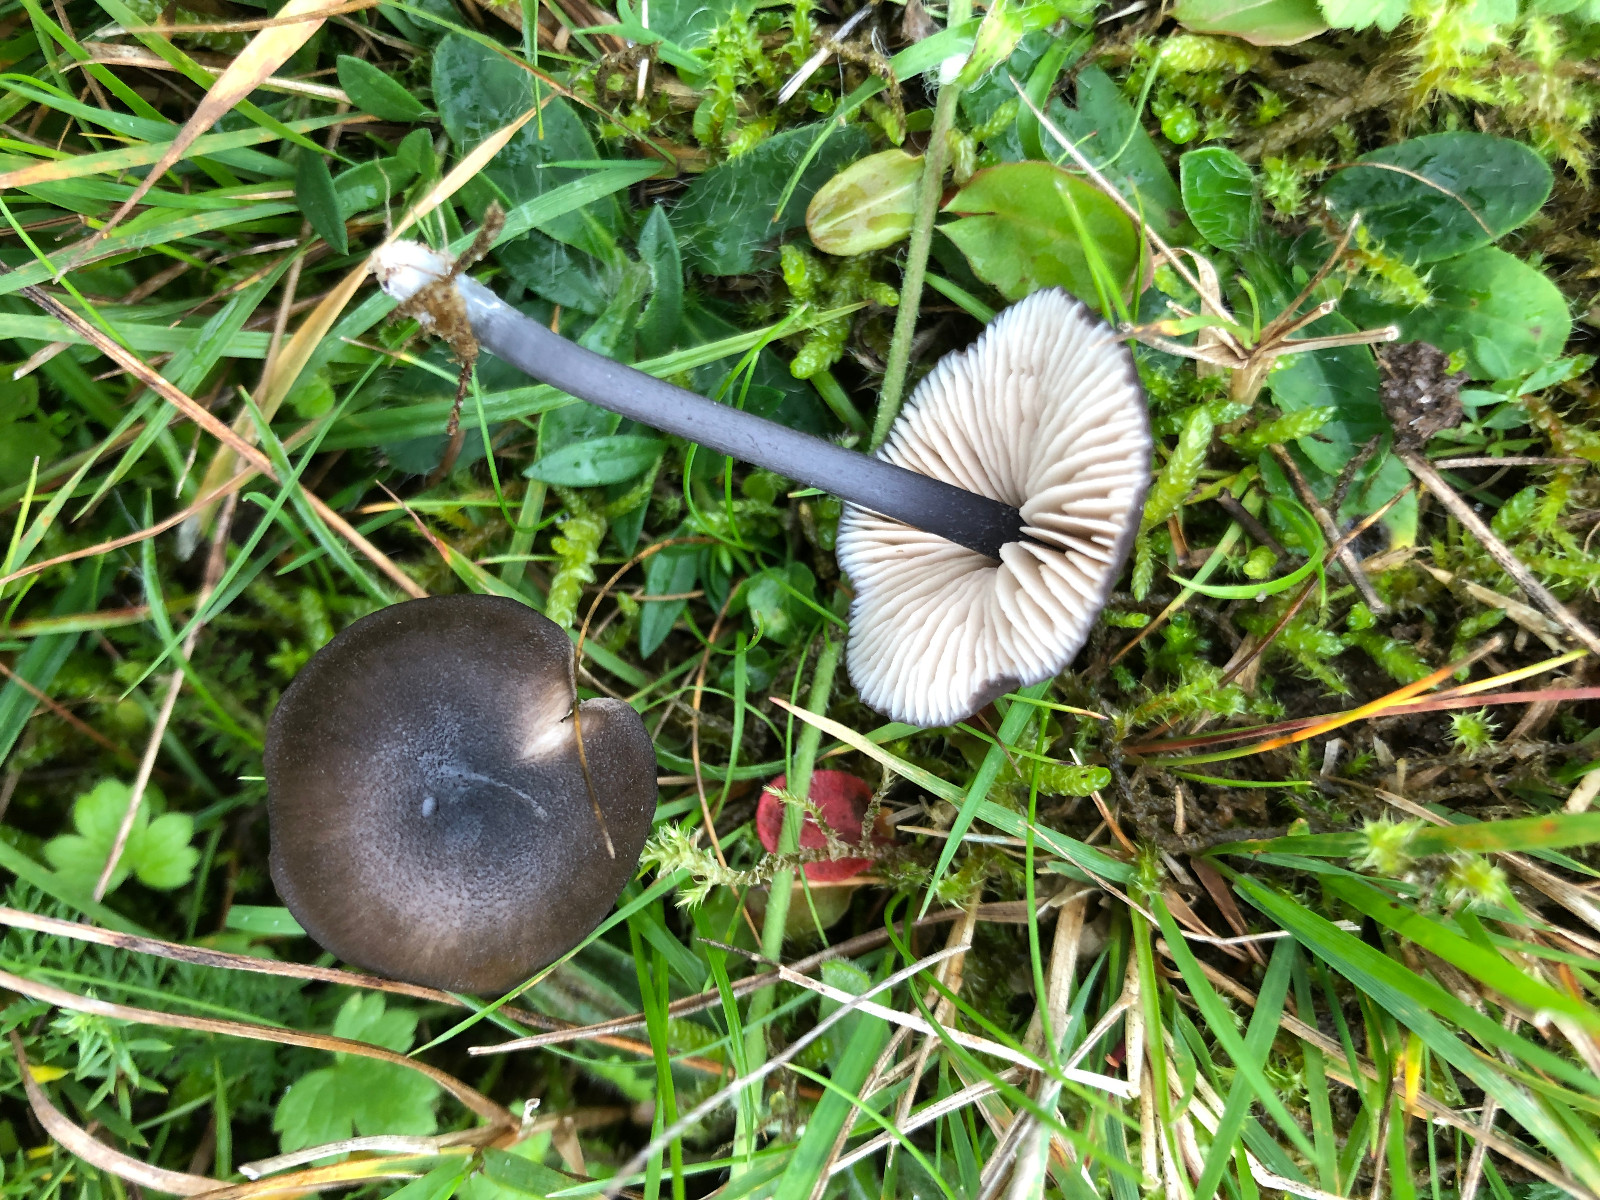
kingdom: Fungi
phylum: Basidiomycota
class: Agaricomycetes
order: Agaricales
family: Entolomataceae
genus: Entoloma
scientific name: Entoloma atrocoeruleum
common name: sortblå rødblad
